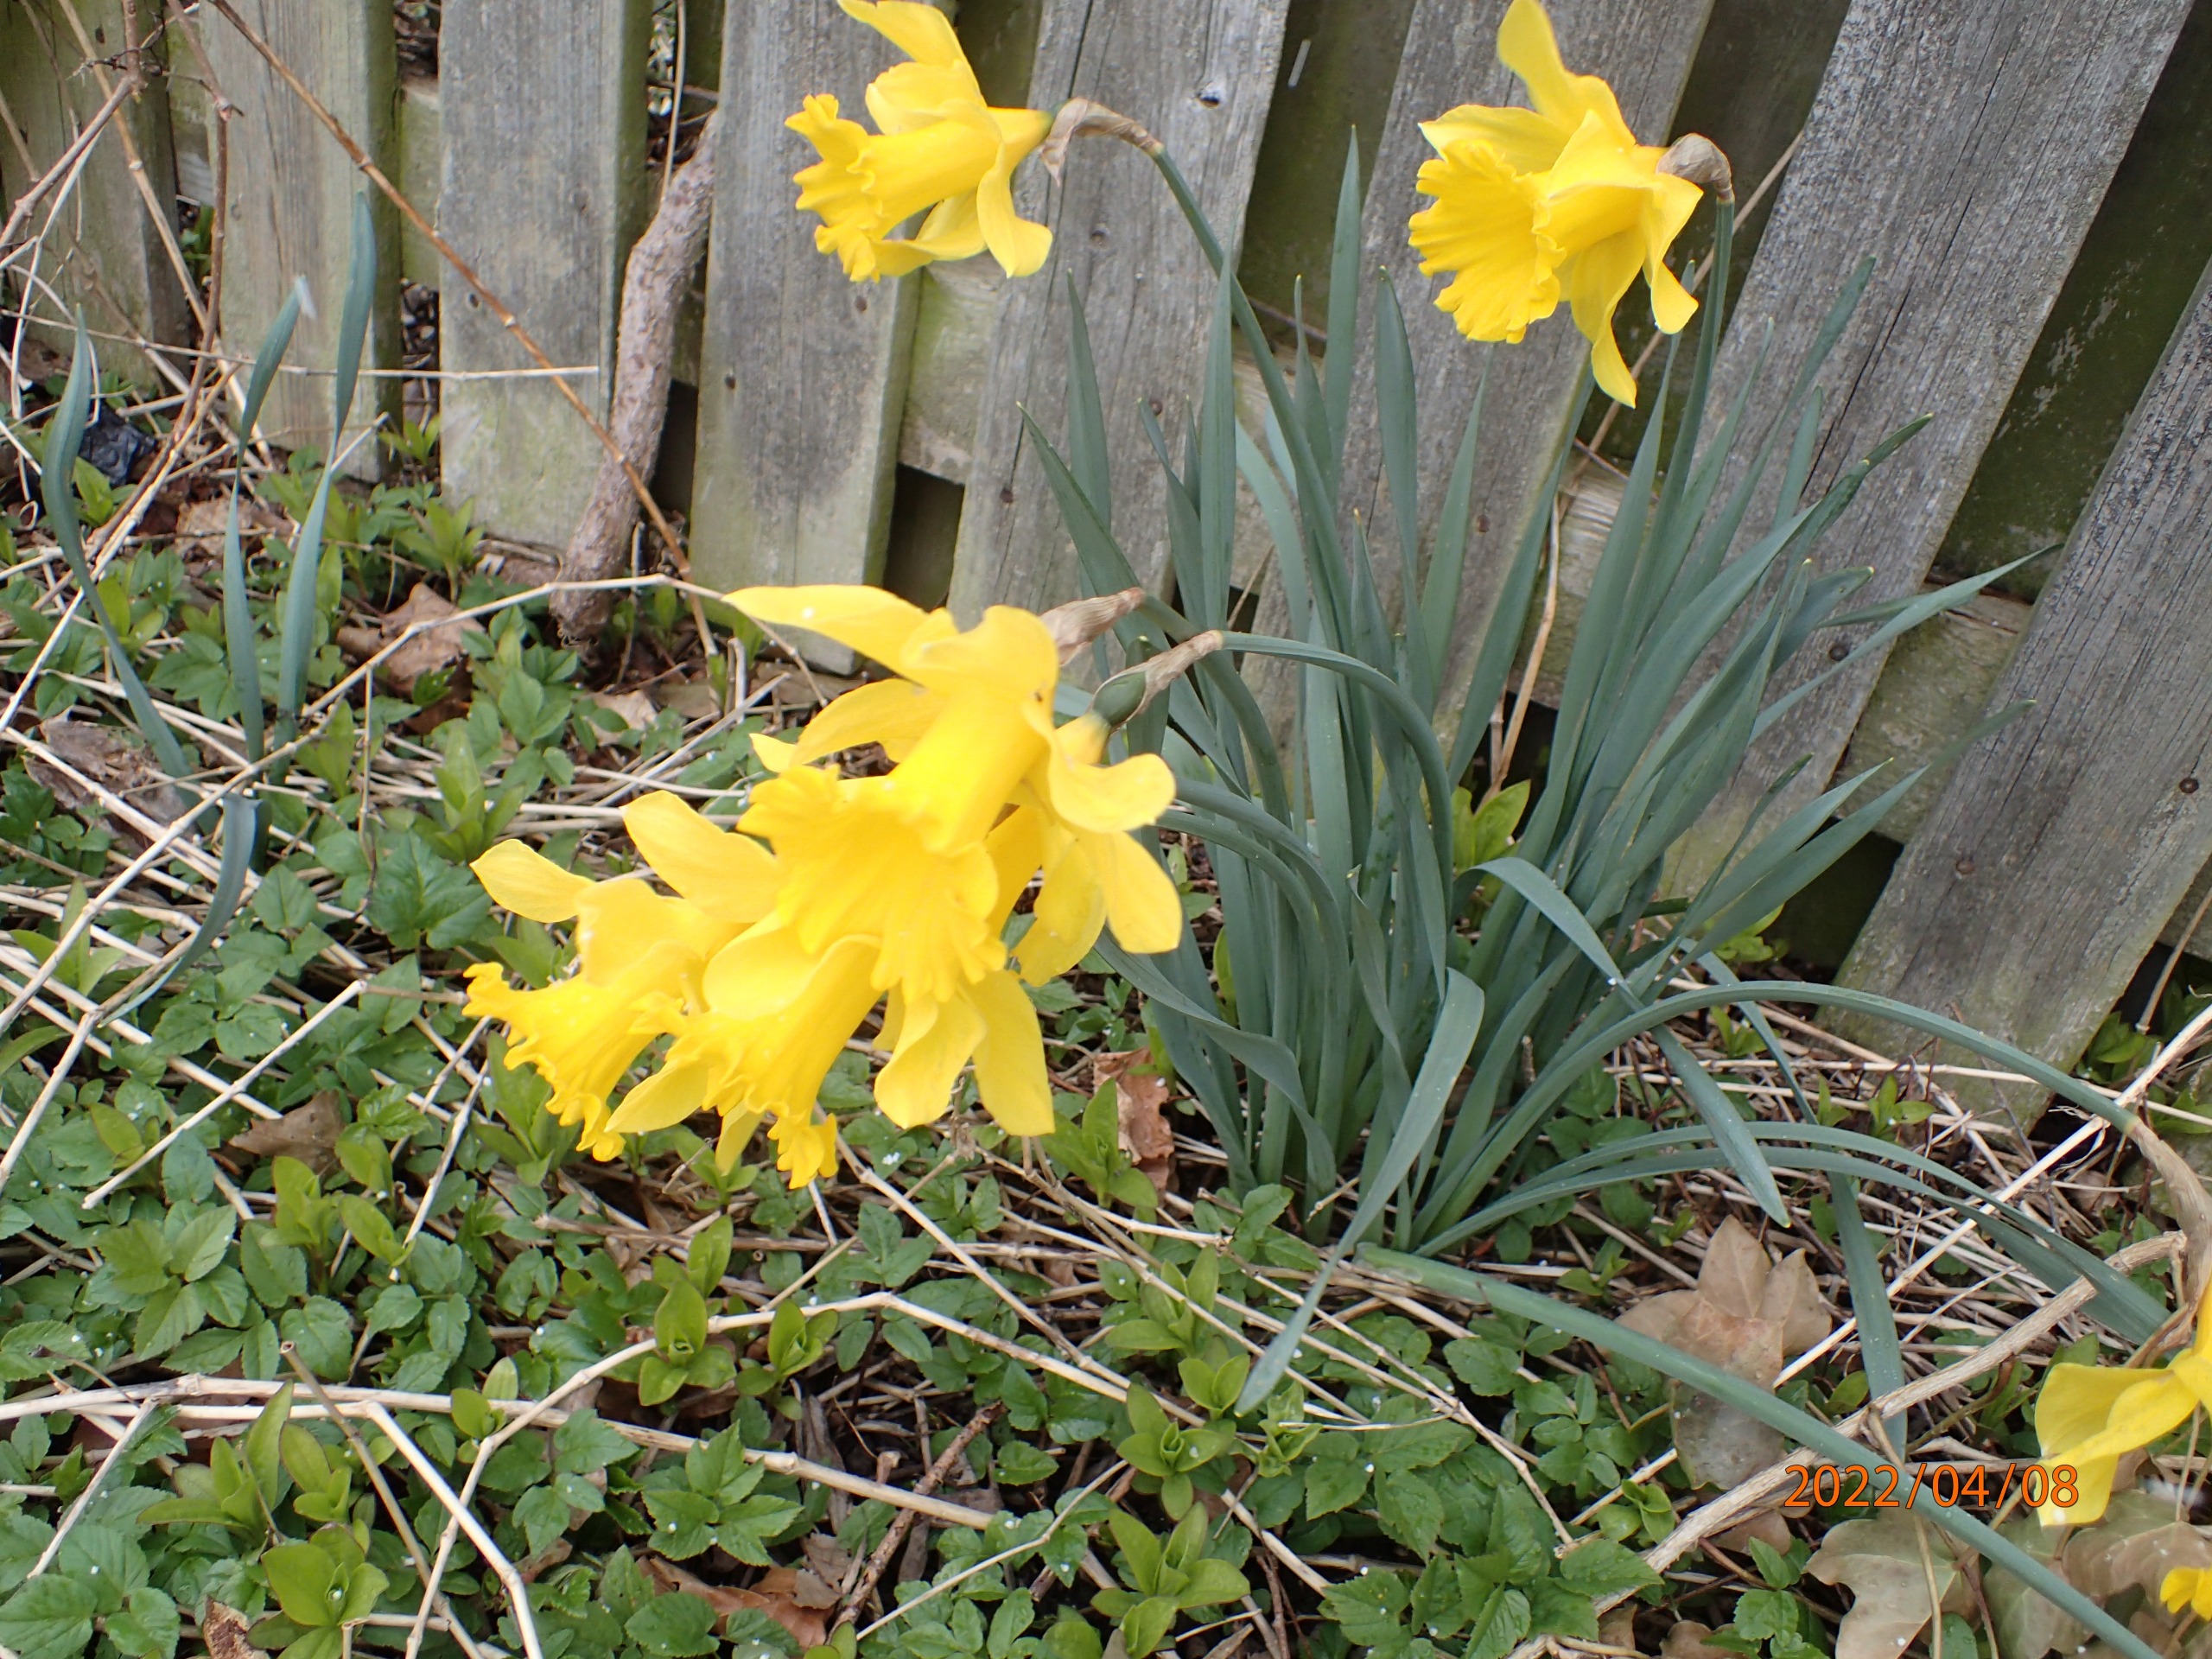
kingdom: Plantae
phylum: Tracheophyta
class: Liliopsida
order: Asparagales
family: Amaryllidaceae
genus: Narcissus
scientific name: Narcissus pseudonarcissus
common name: Påskelilje
